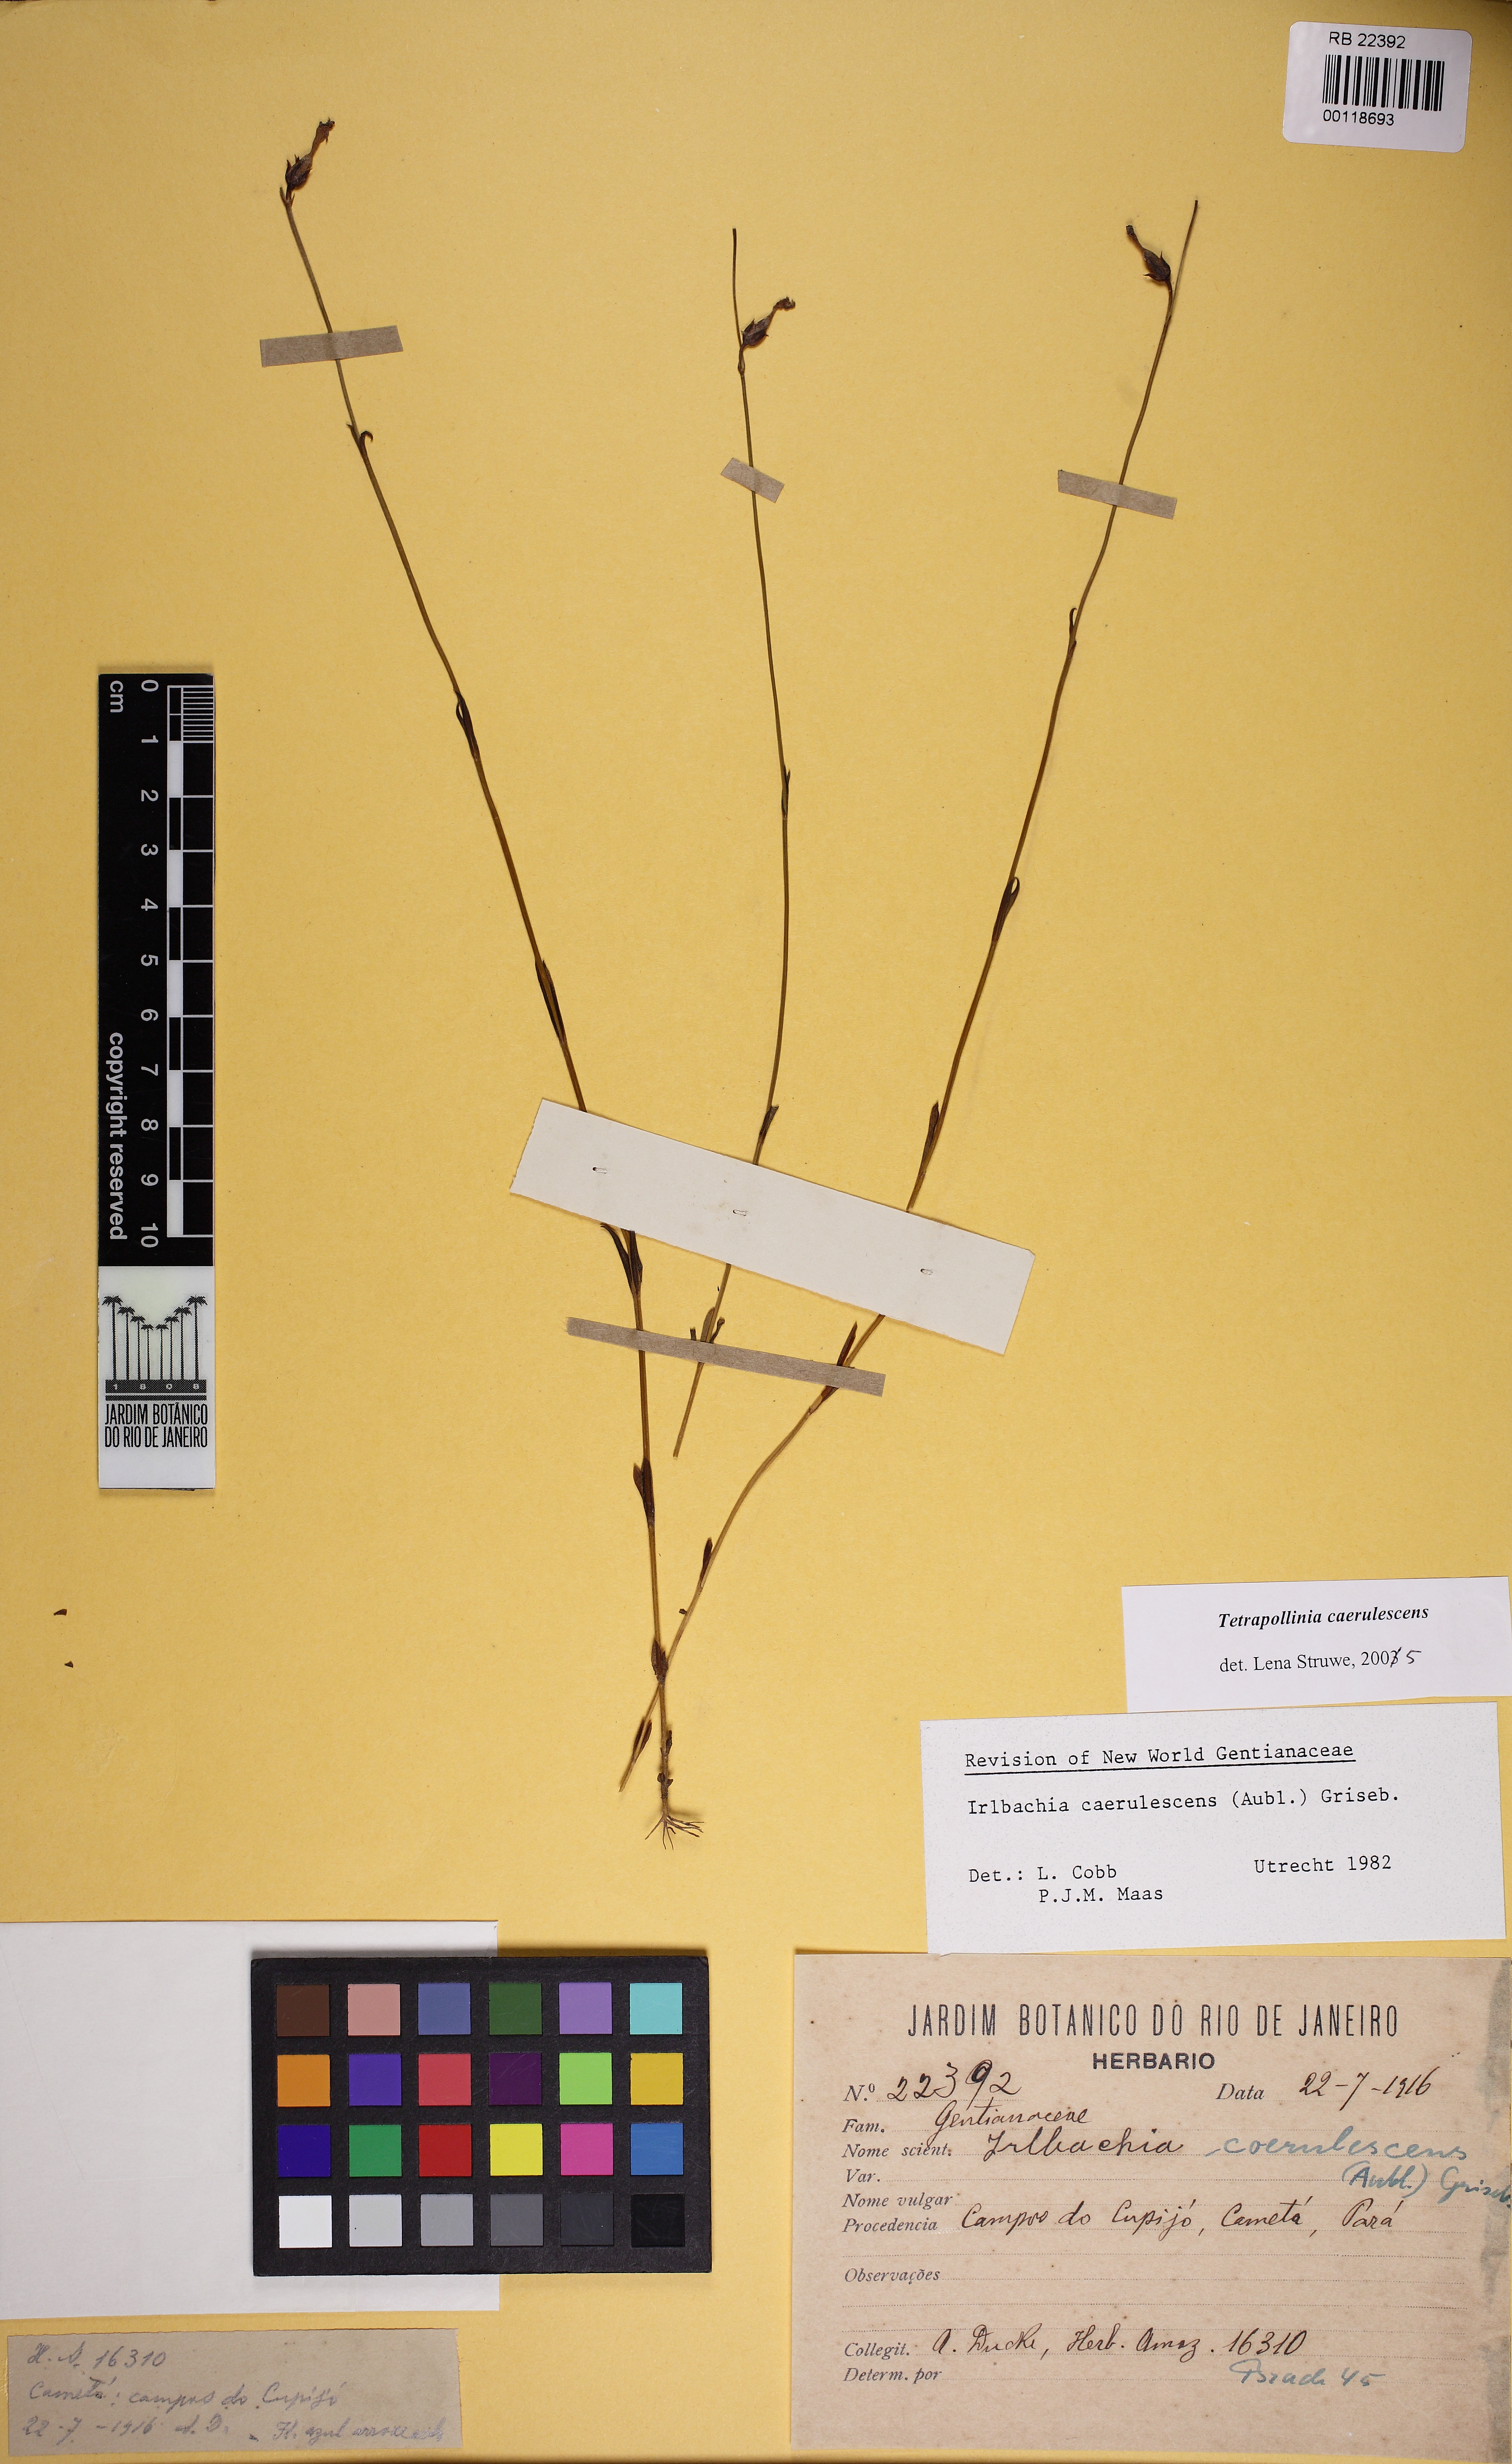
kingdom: Plantae
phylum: Tracheophyta
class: Magnoliopsida
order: Gentianales
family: Gentianaceae
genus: Tetrapollinia
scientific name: Tetrapollinia caerulescens
